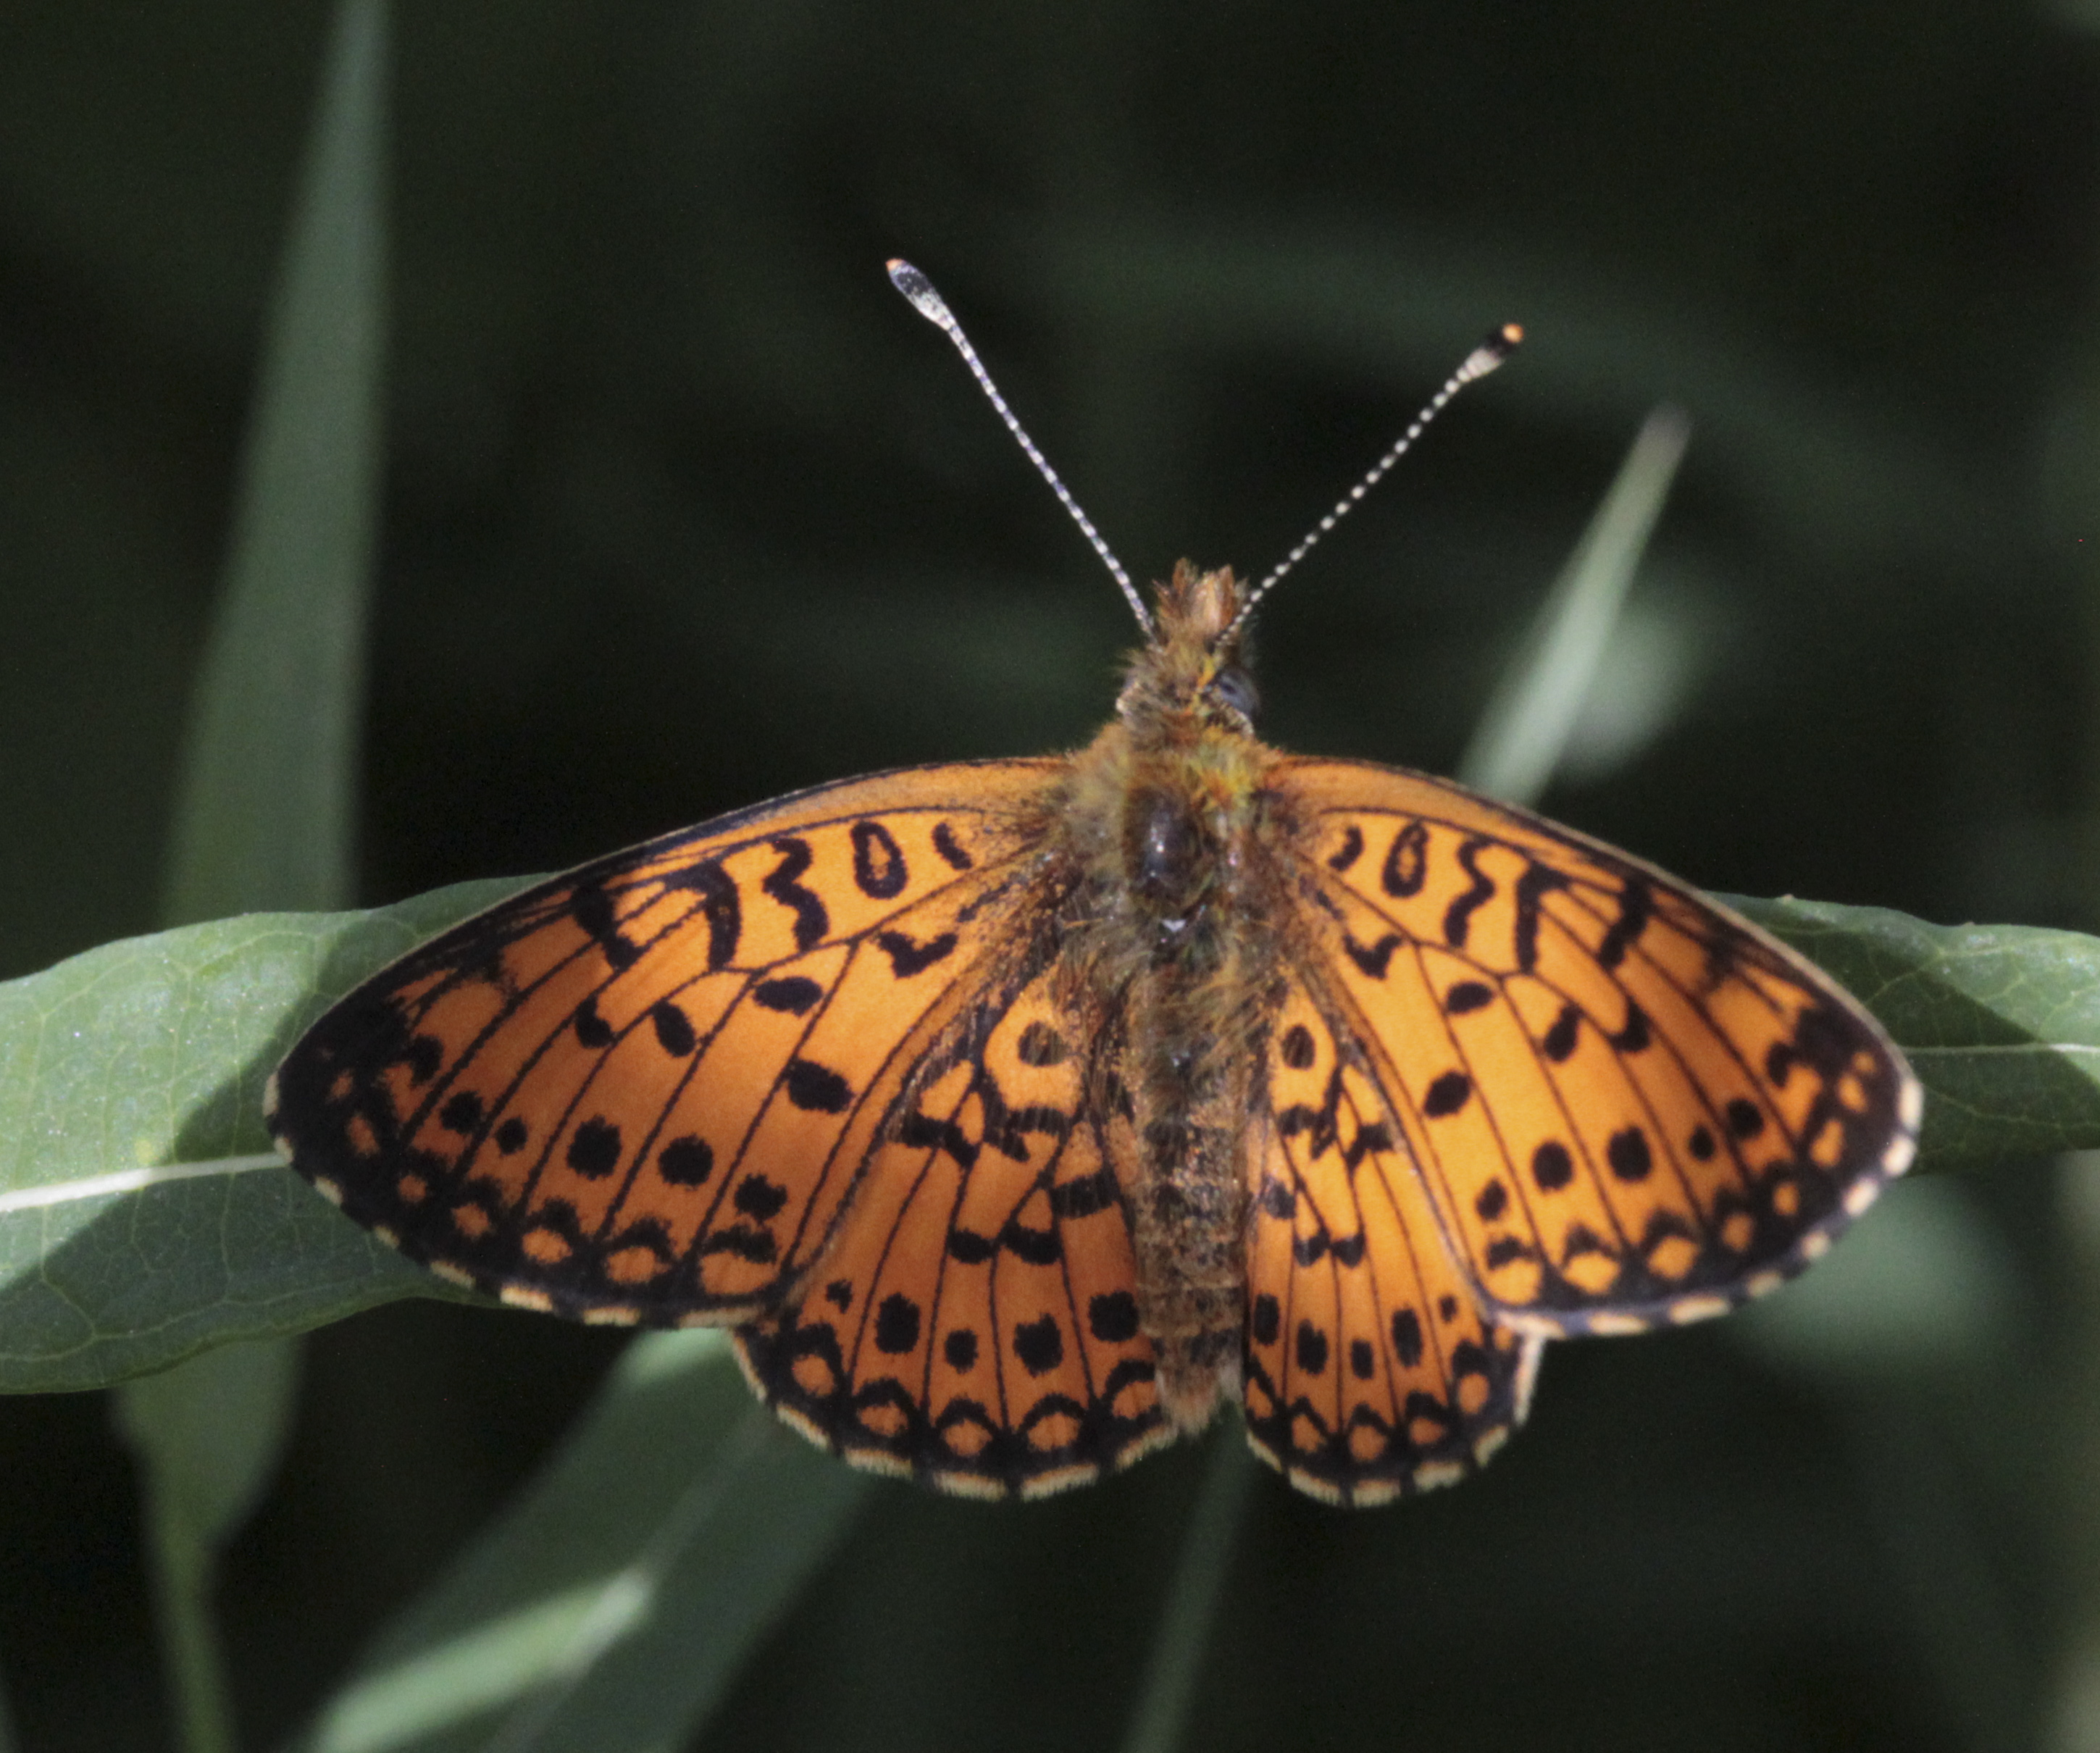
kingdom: Animalia
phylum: Arthropoda
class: Insecta
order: Lepidoptera
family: Nymphalidae
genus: Boloria
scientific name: Boloria selene
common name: Small pearl-bordered fritillary
